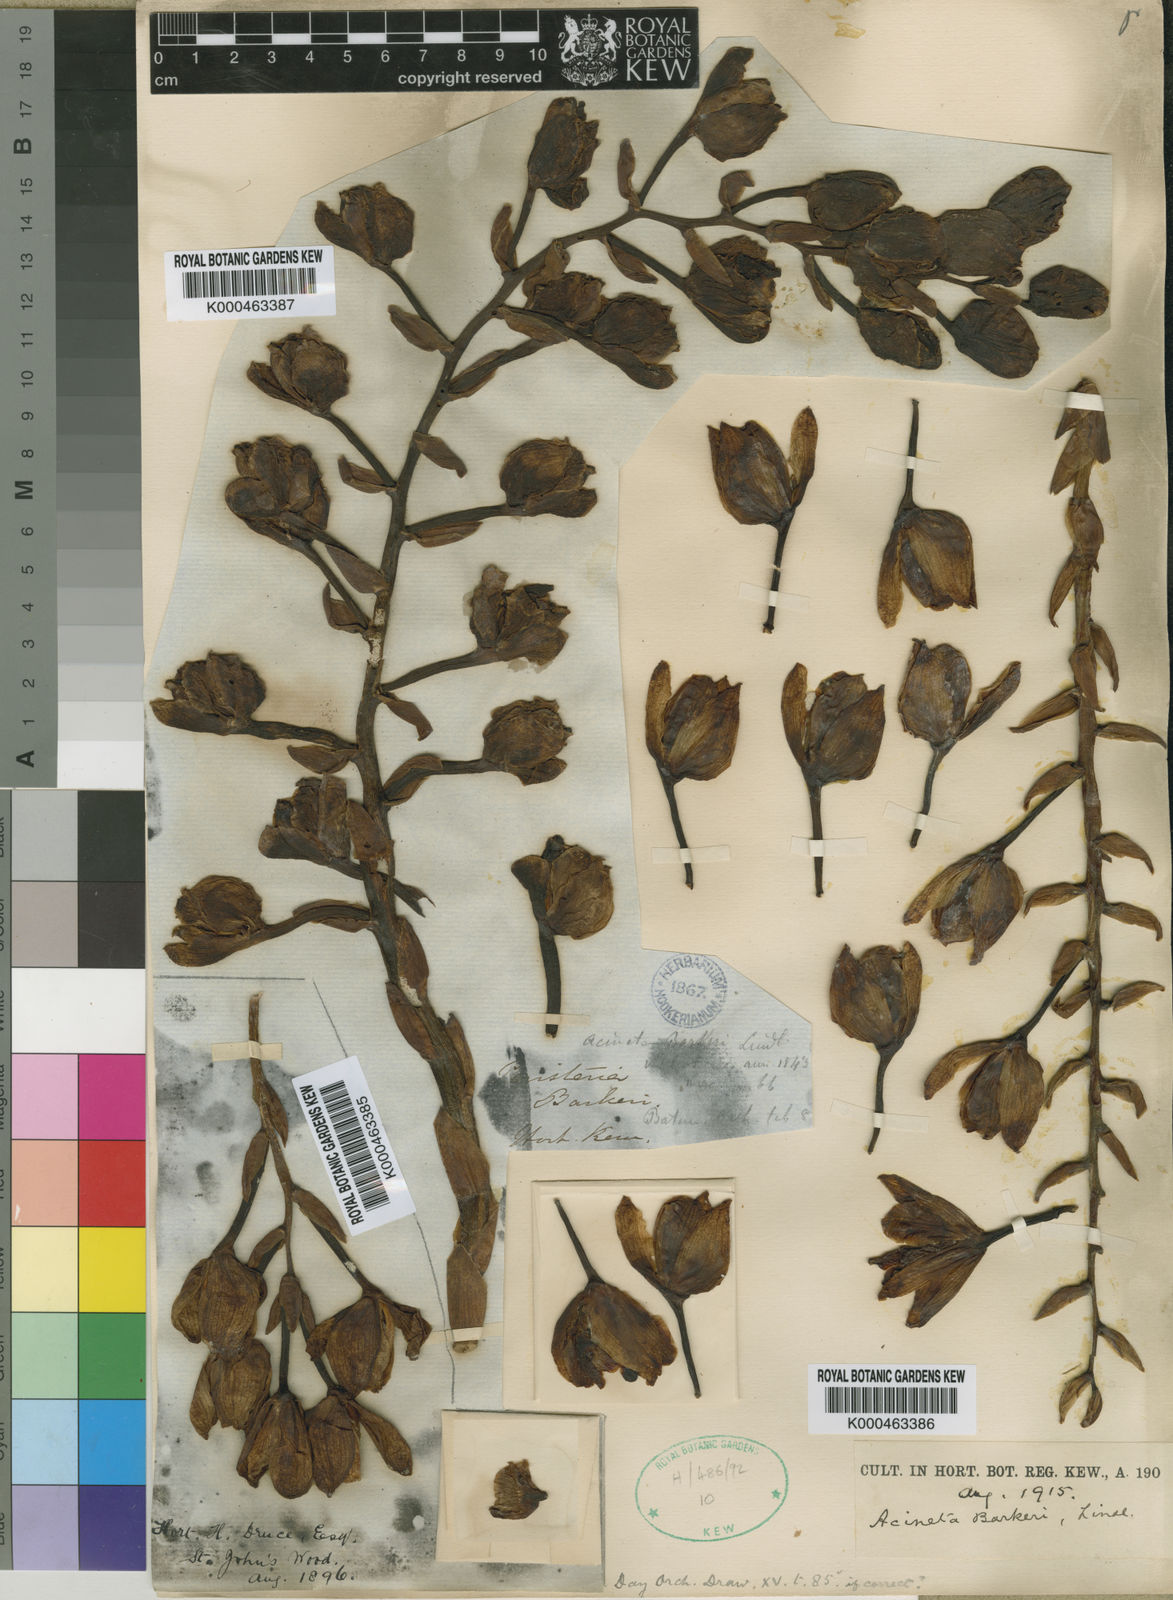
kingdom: Plantae
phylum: Tracheophyta
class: Liliopsida
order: Asparagales
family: Orchidaceae
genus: Acineta
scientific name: Acineta barkeri
